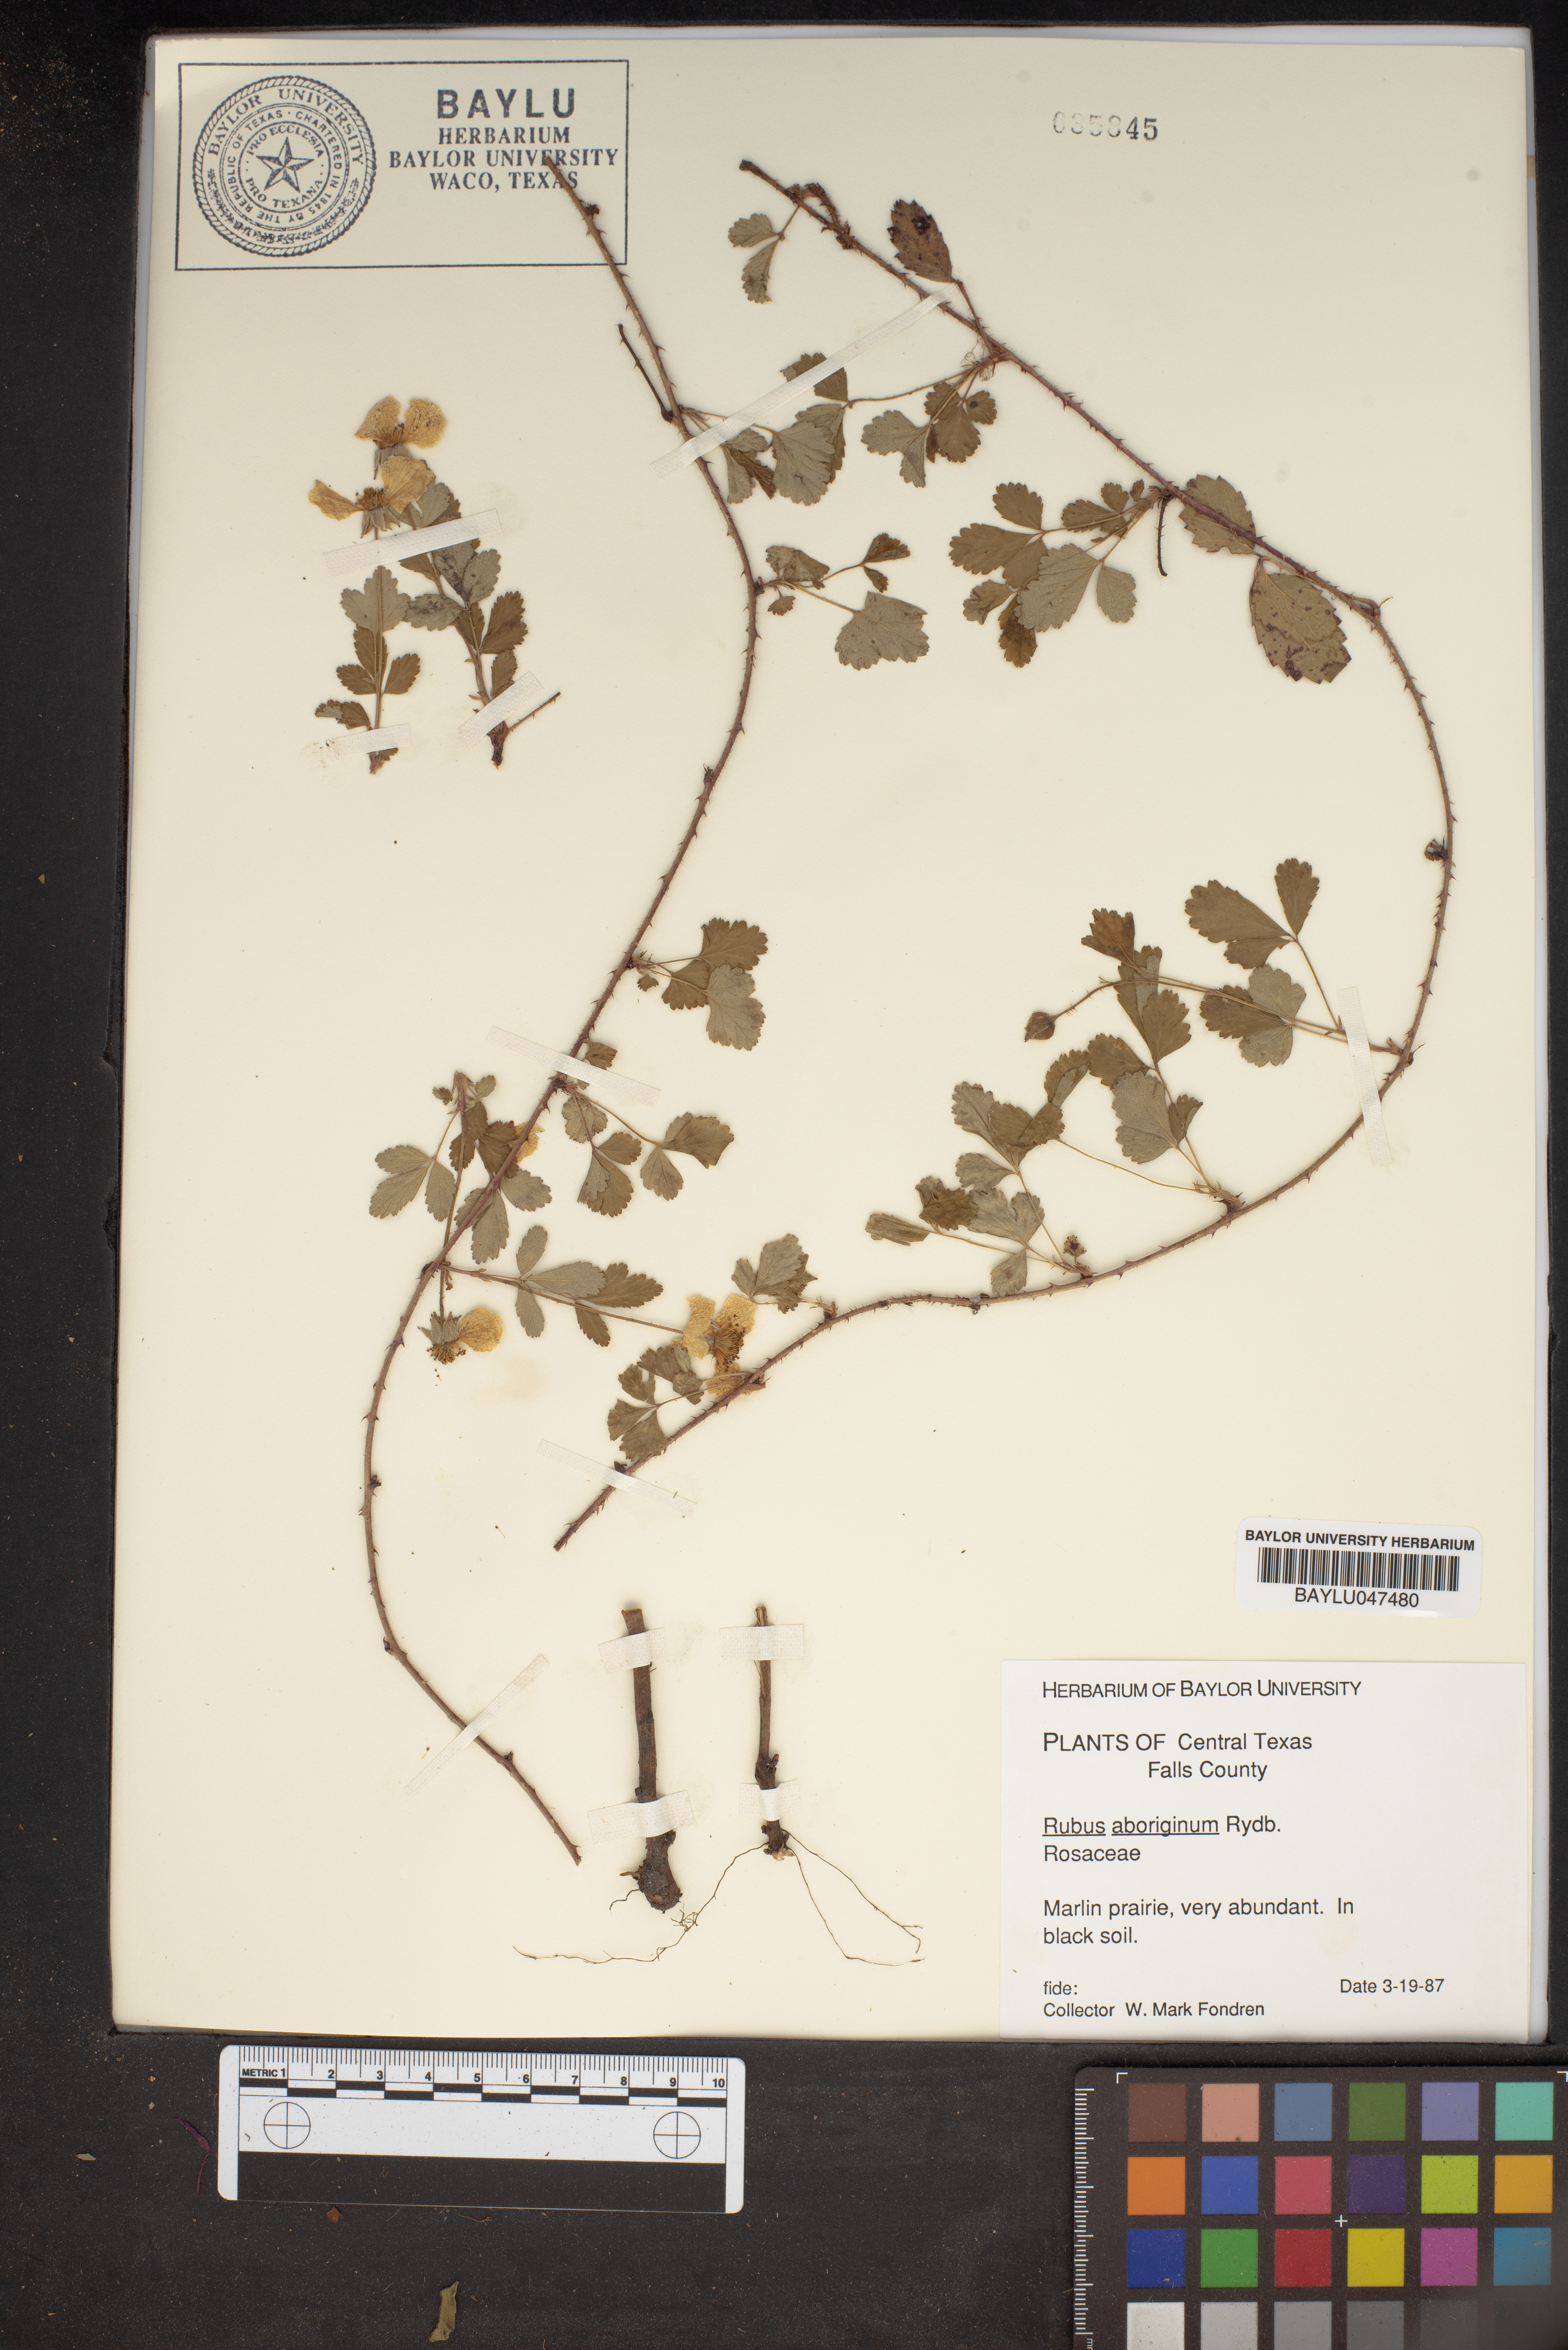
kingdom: Plantae
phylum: Tracheophyta
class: Magnoliopsida
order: Rosales
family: Rosaceae
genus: Rubus
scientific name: Rubus aboriginum
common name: Mayes dewberry
